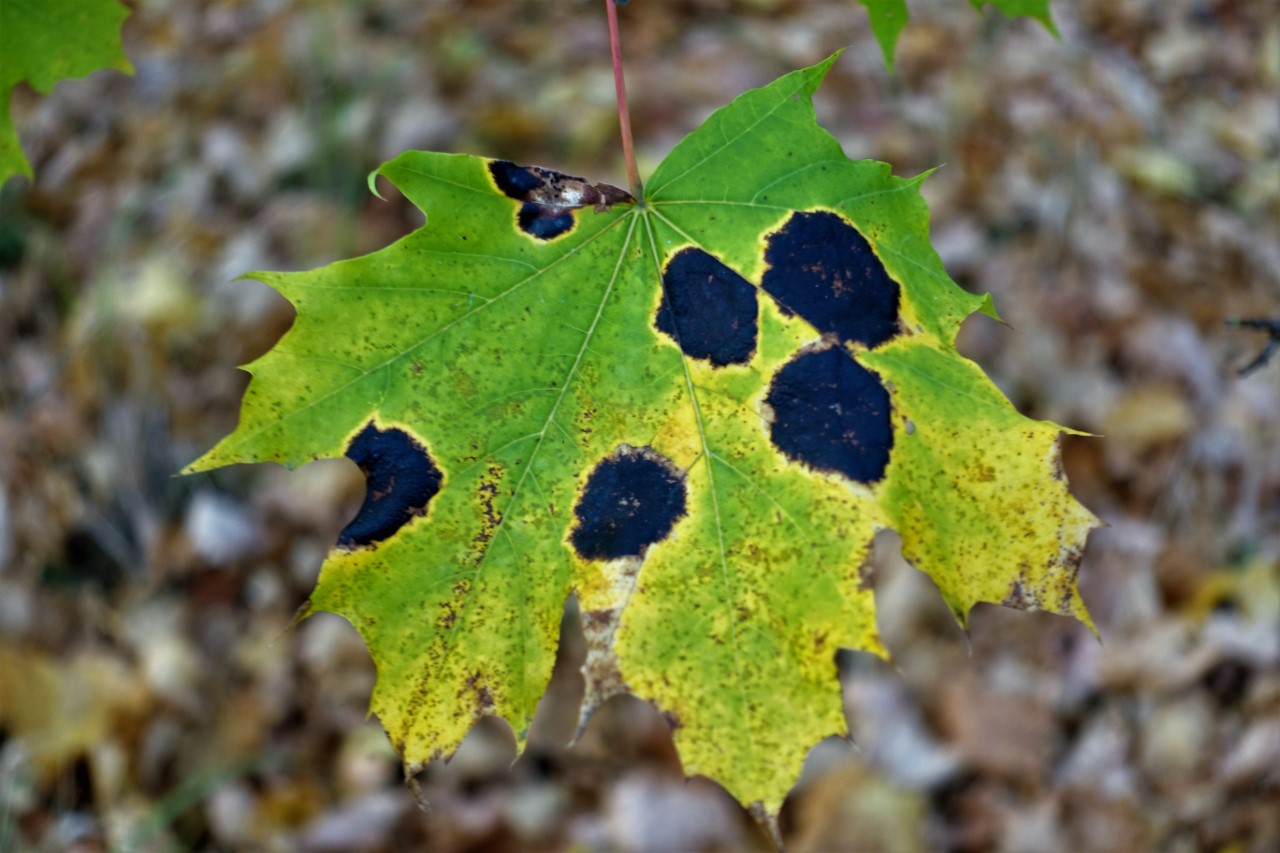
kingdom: Fungi
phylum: Ascomycota
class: Leotiomycetes
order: Rhytismatales
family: Rhytismataceae
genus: Rhytisma
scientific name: Rhytisma acerinum
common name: ahorn-rynkeplet
